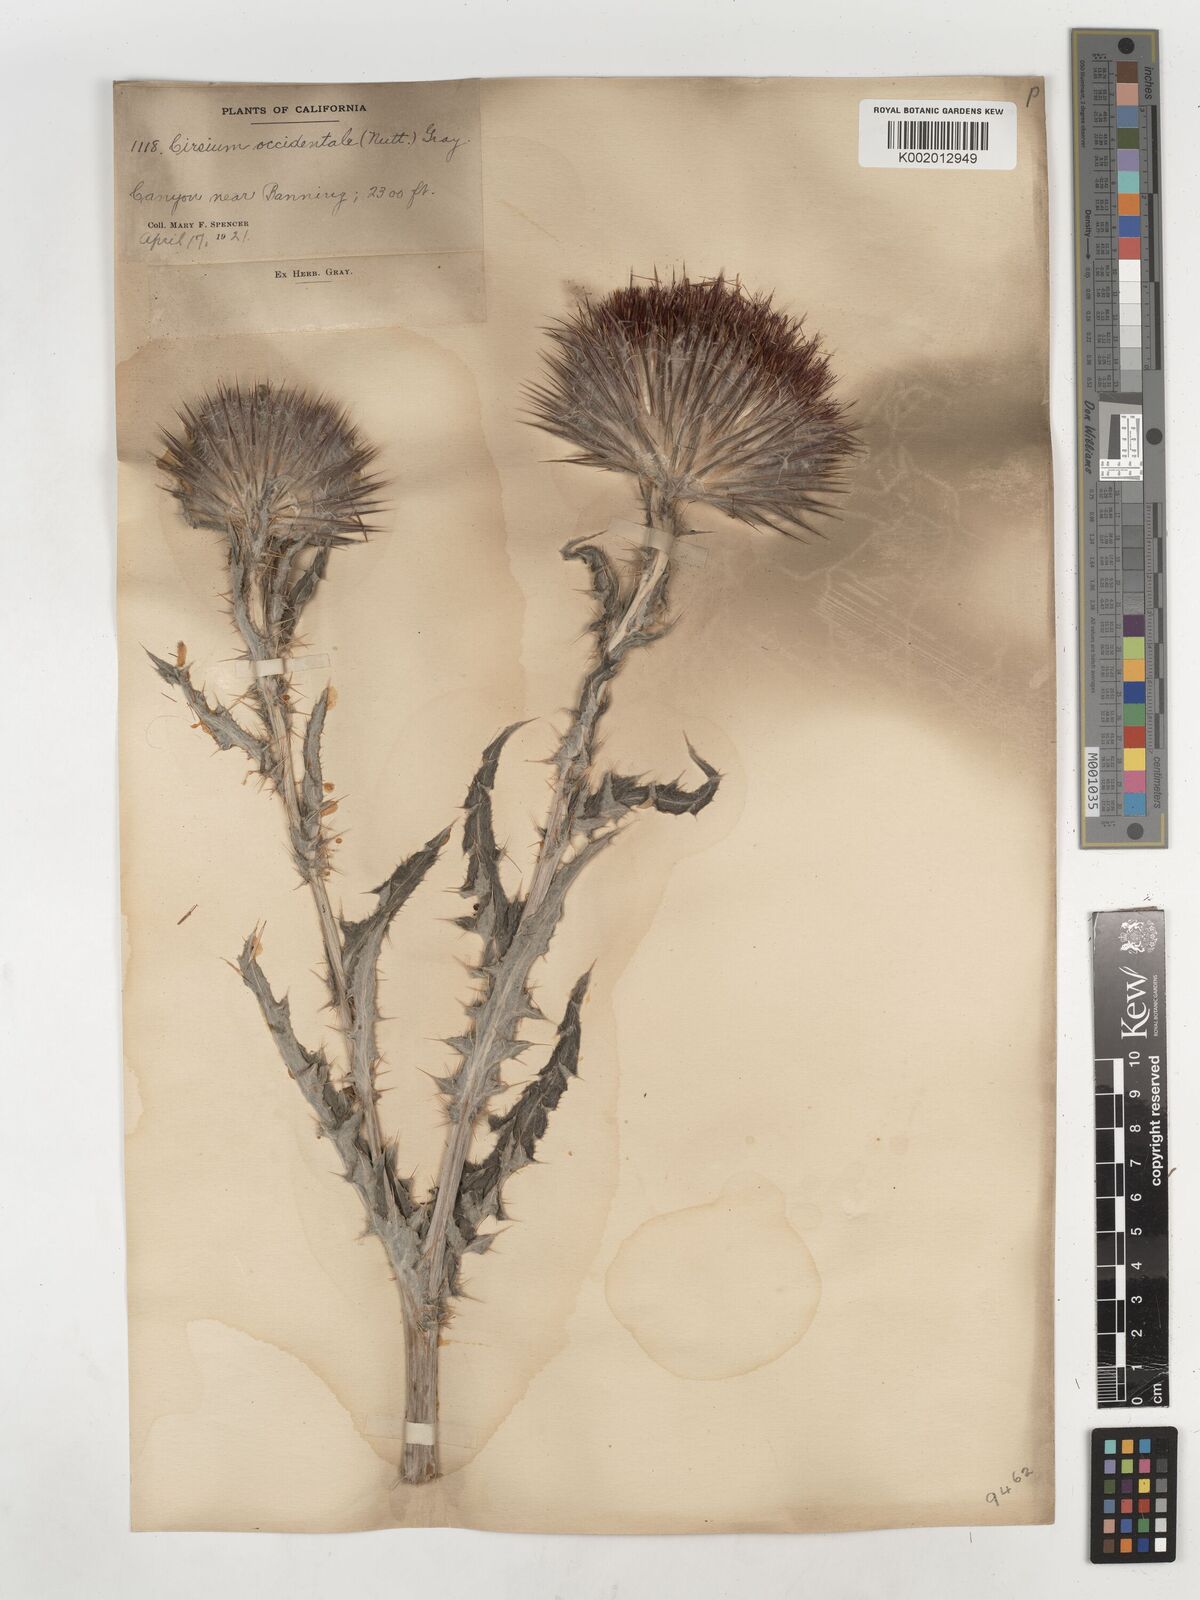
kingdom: Plantae
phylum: Tracheophyta
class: Magnoliopsida
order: Asterales
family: Asteraceae
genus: Cirsium
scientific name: Cirsium occidentale
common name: Western thistle
